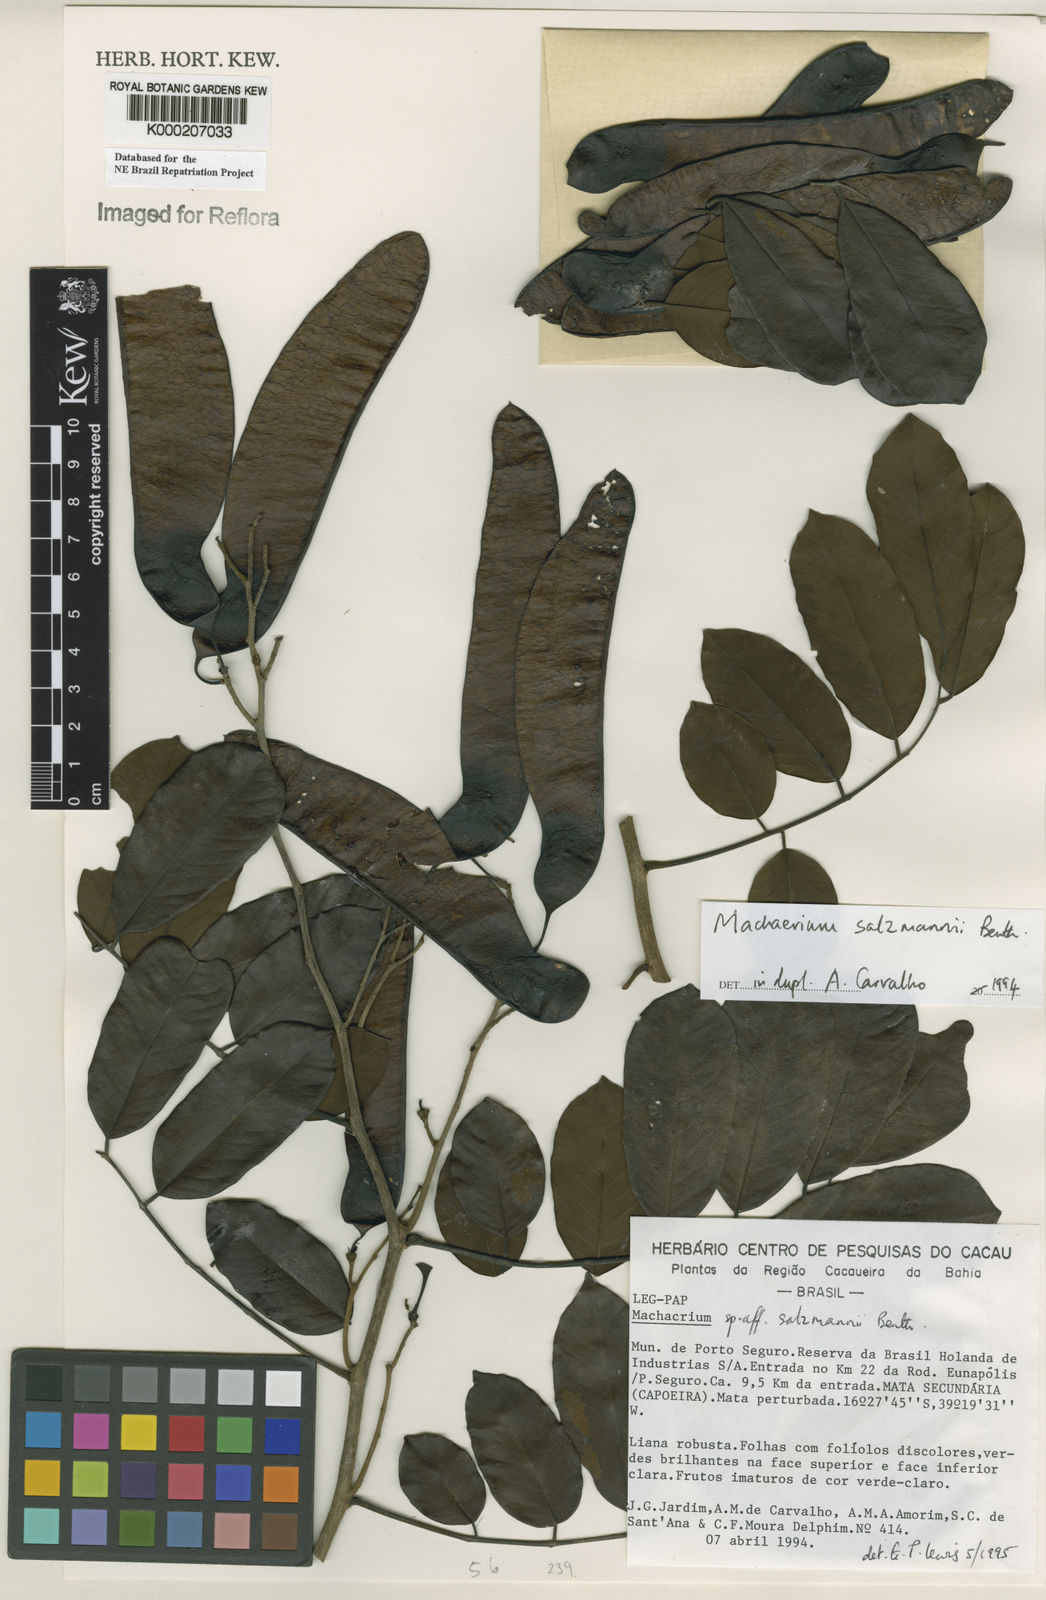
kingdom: Plantae
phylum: Tracheophyta
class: Magnoliopsida
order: Fabales
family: Fabaceae
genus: Machaerium
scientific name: Machaerium salzmannii
